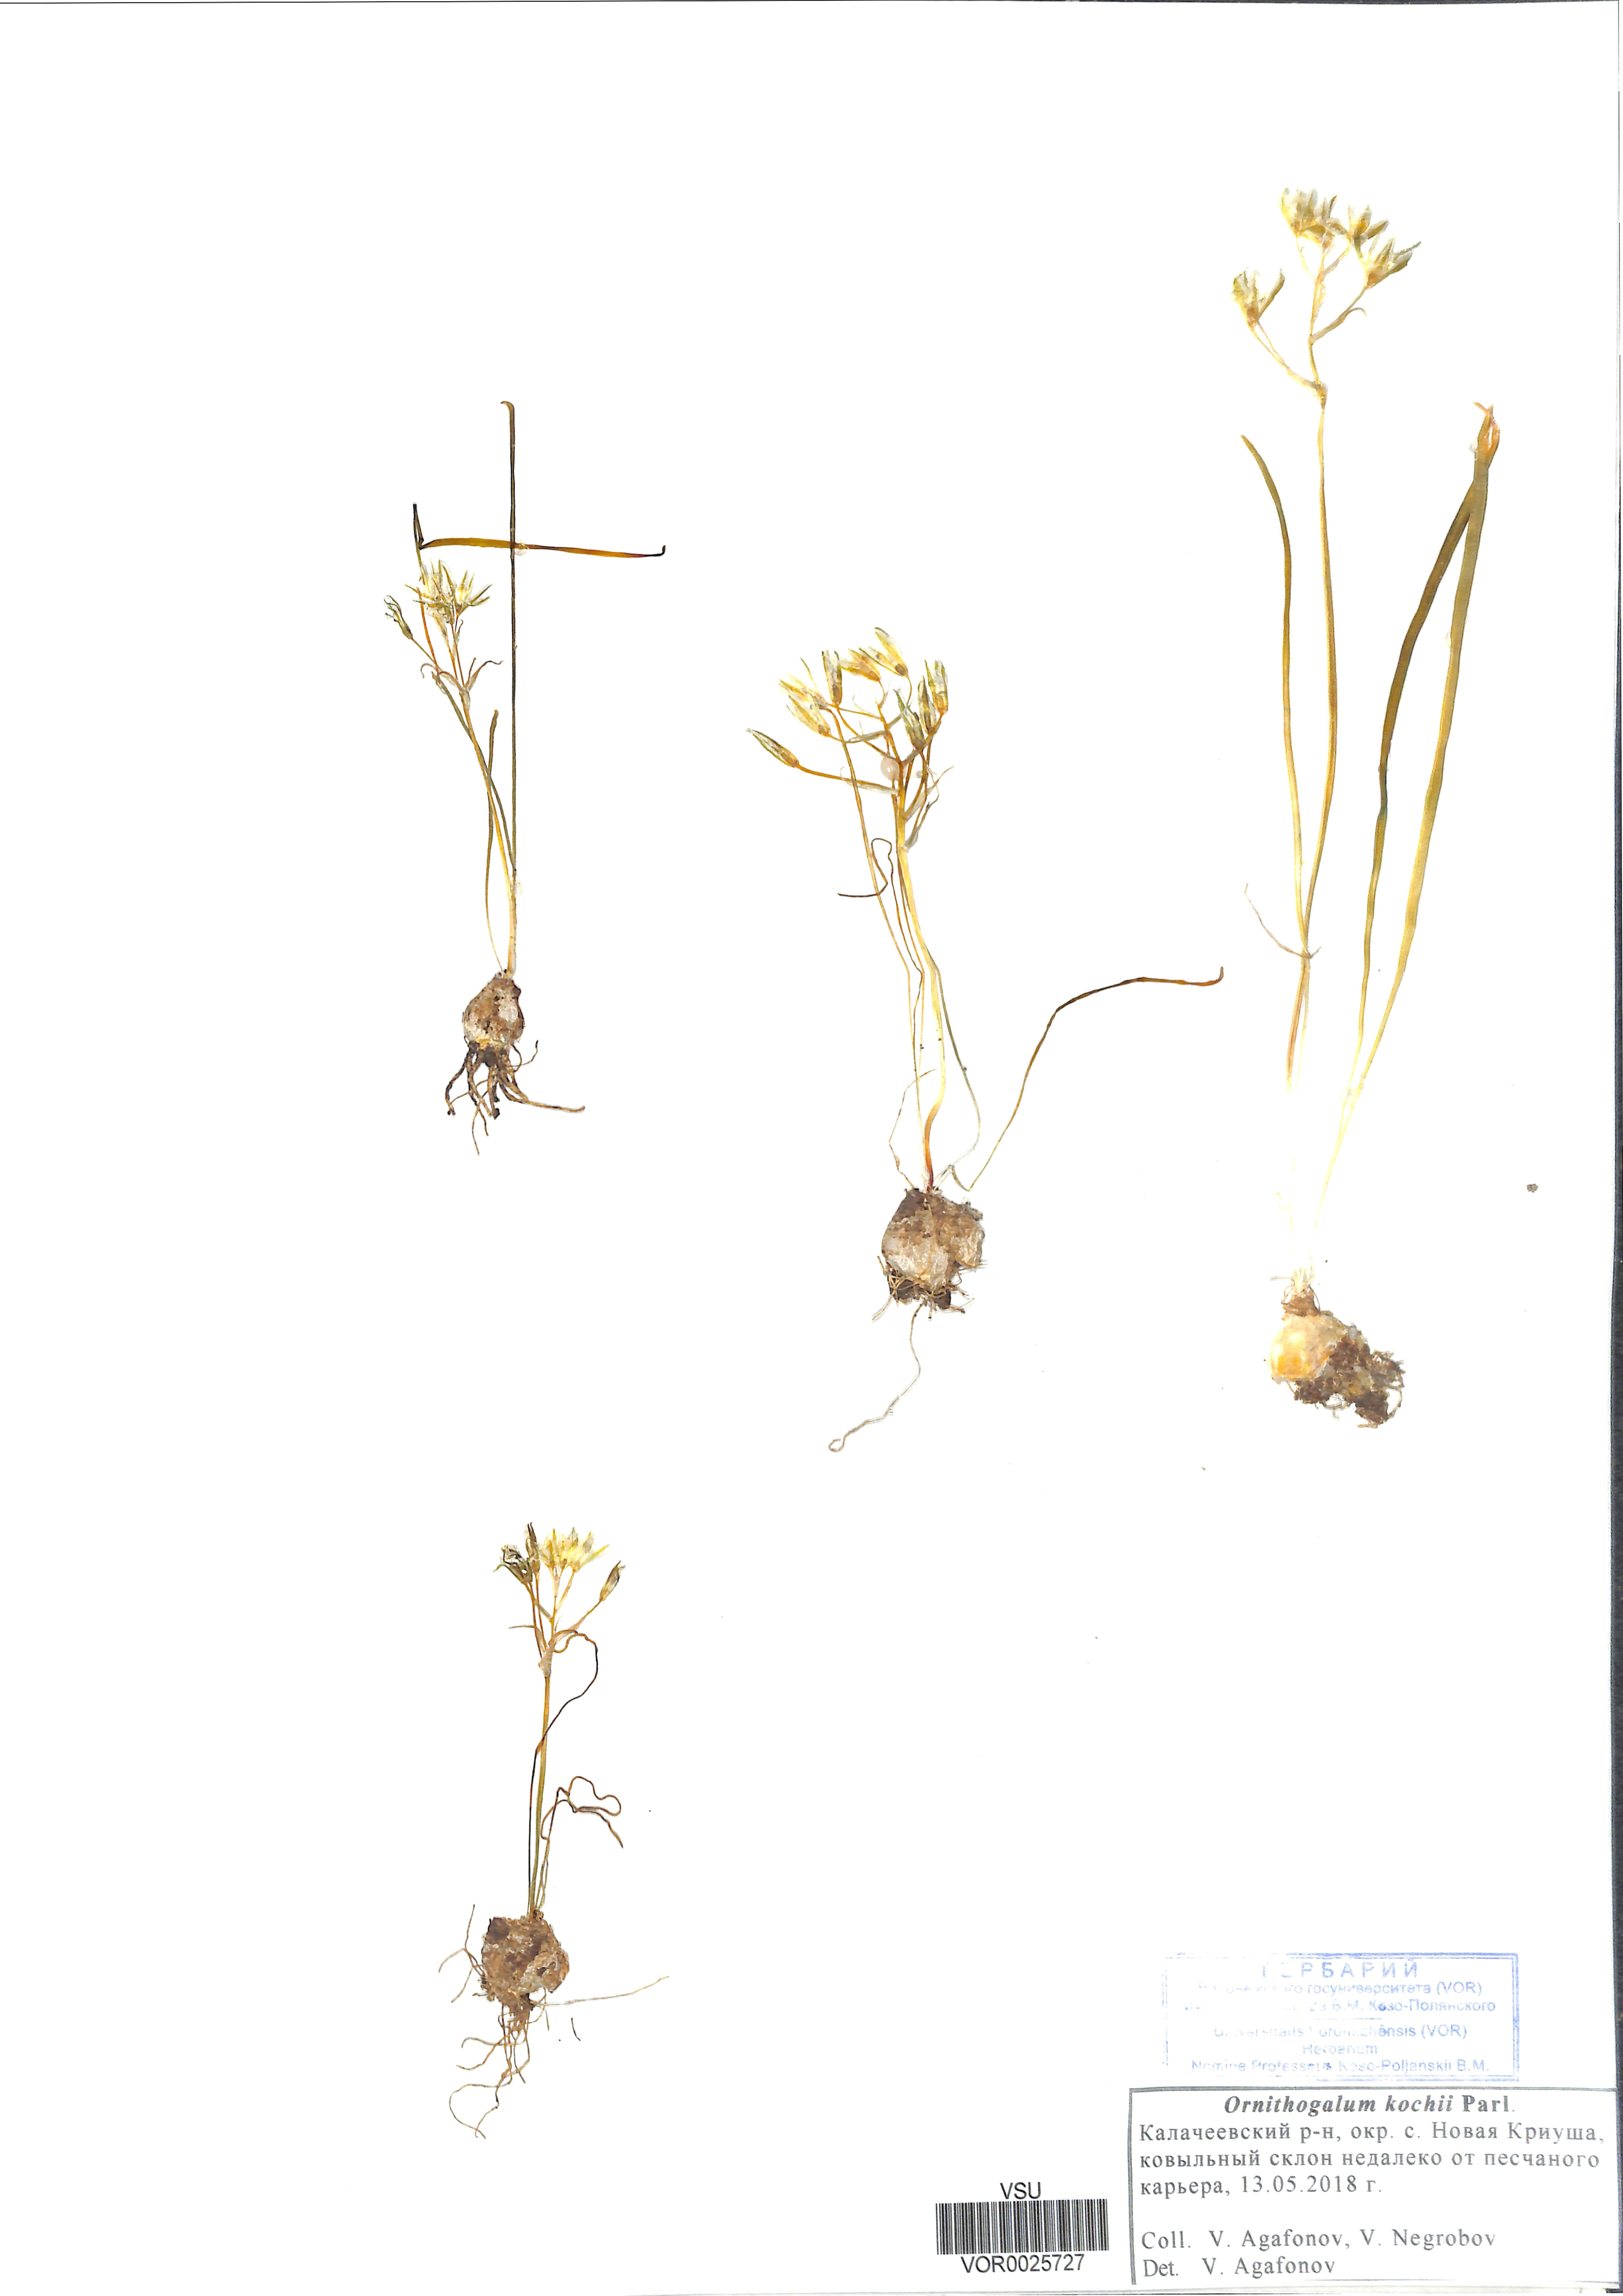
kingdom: Plantae
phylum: Tracheophyta
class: Liliopsida
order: Asparagales
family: Asparagaceae
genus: Ornithogalum
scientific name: Ornithogalum orthophyllum
